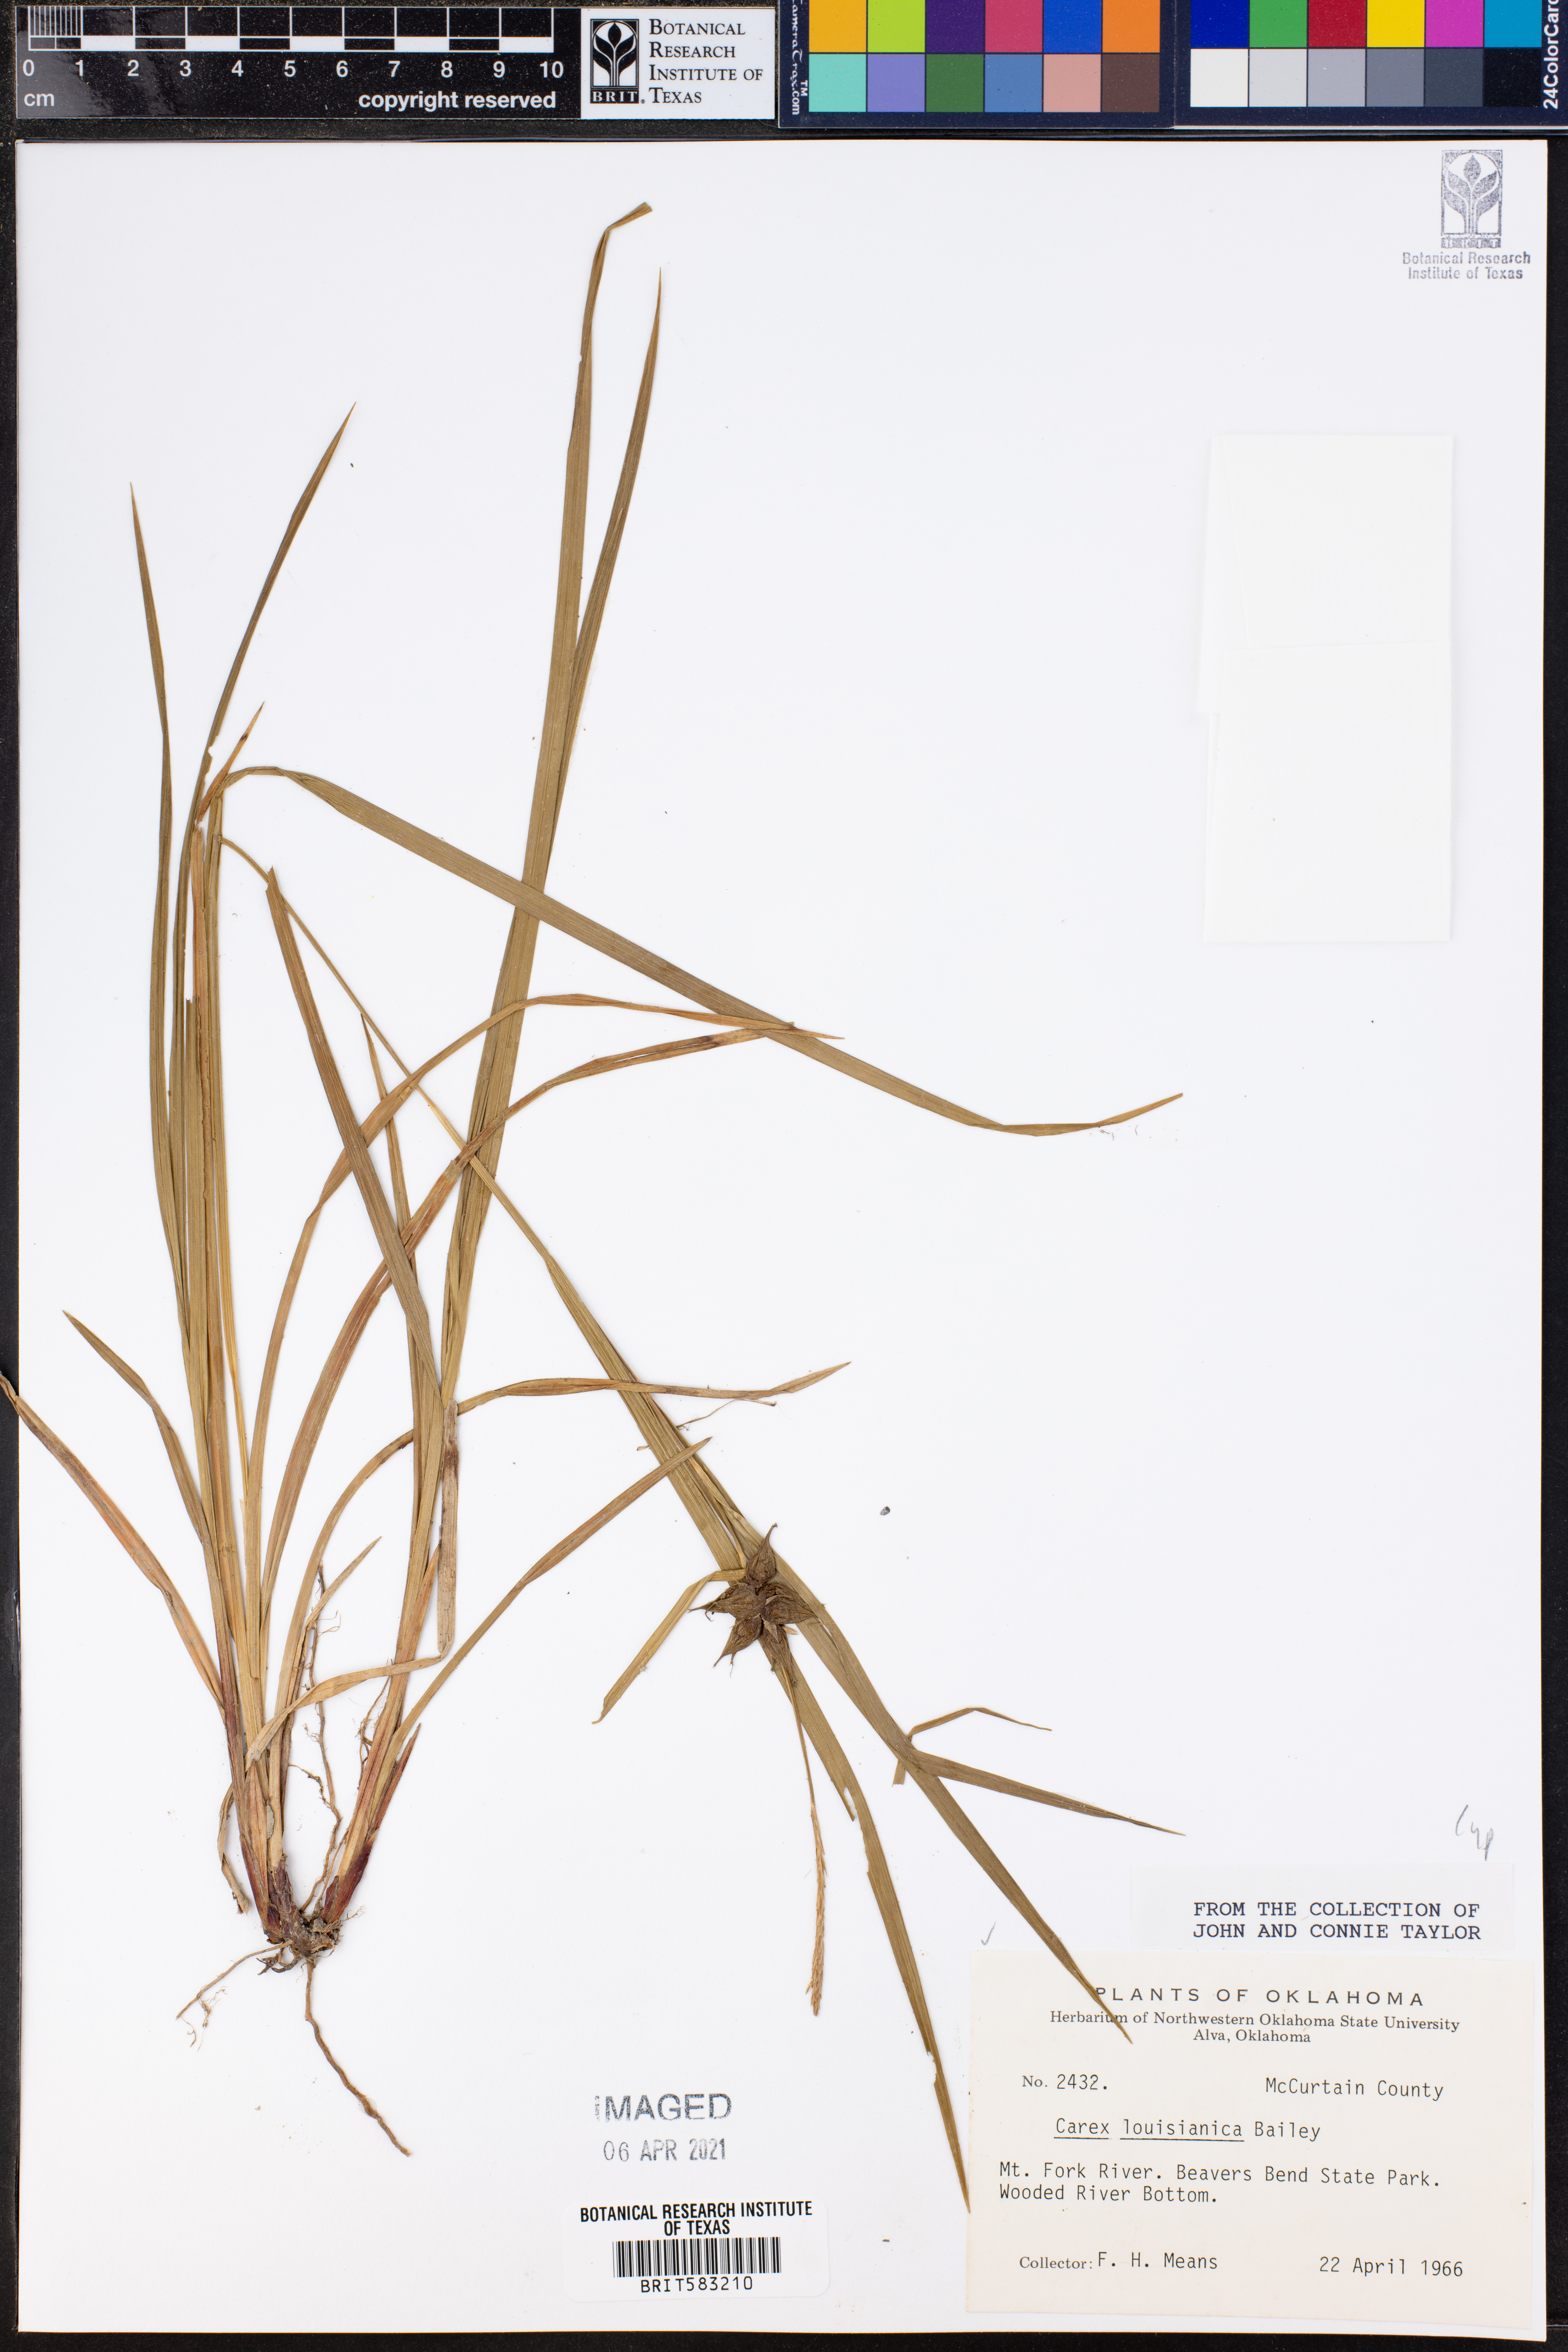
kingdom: Plantae
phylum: Tracheophyta
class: Liliopsida
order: Poales
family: Cyperaceae
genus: Carex
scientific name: Carex louisianica
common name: Louisiana sedge
